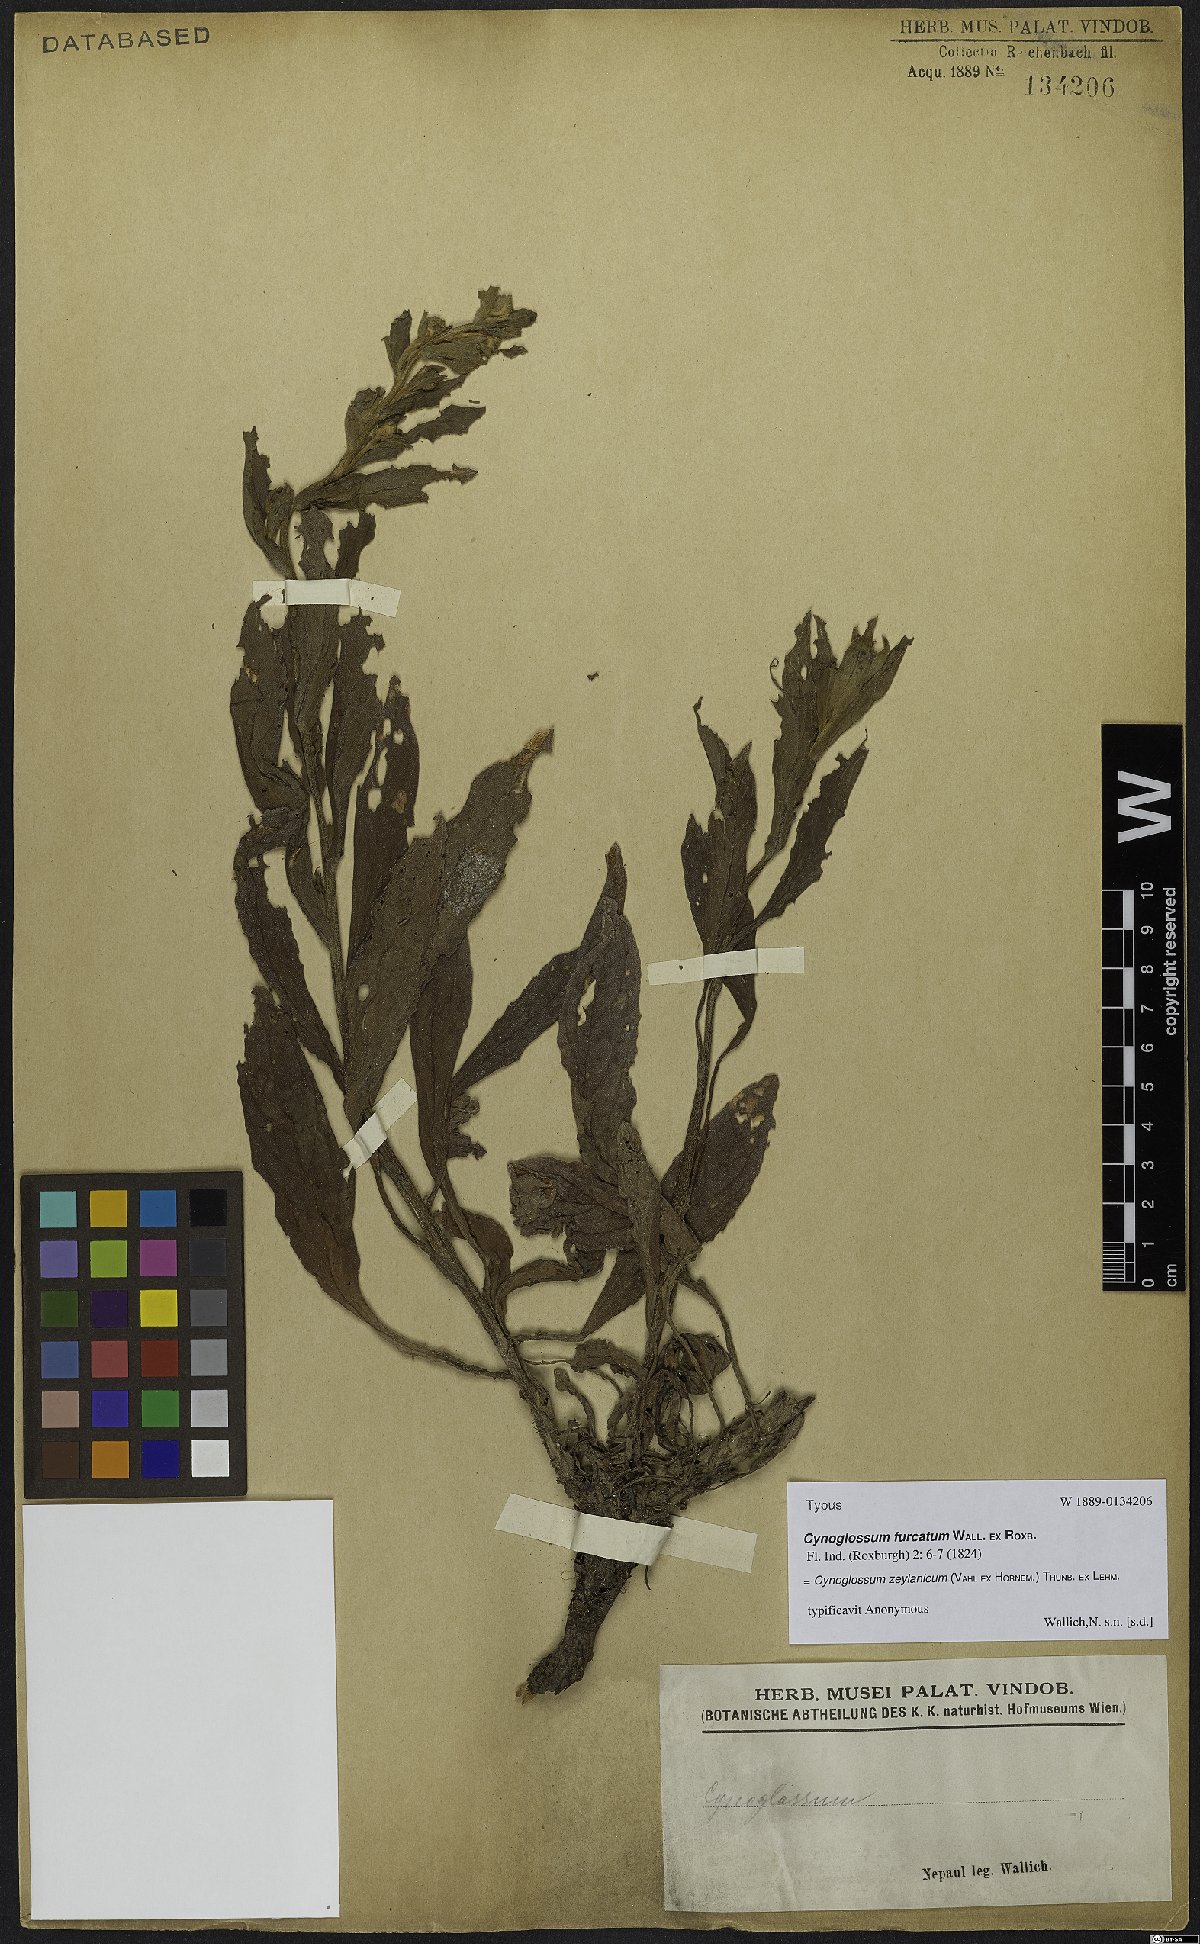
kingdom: Plantae
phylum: Tracheophyta
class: Magnoliopsida
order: Boraginales
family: Boraginaceae
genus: Cynoglossum
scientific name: Cynoglossum zeylanicum
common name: Ceylon hound's tongue
